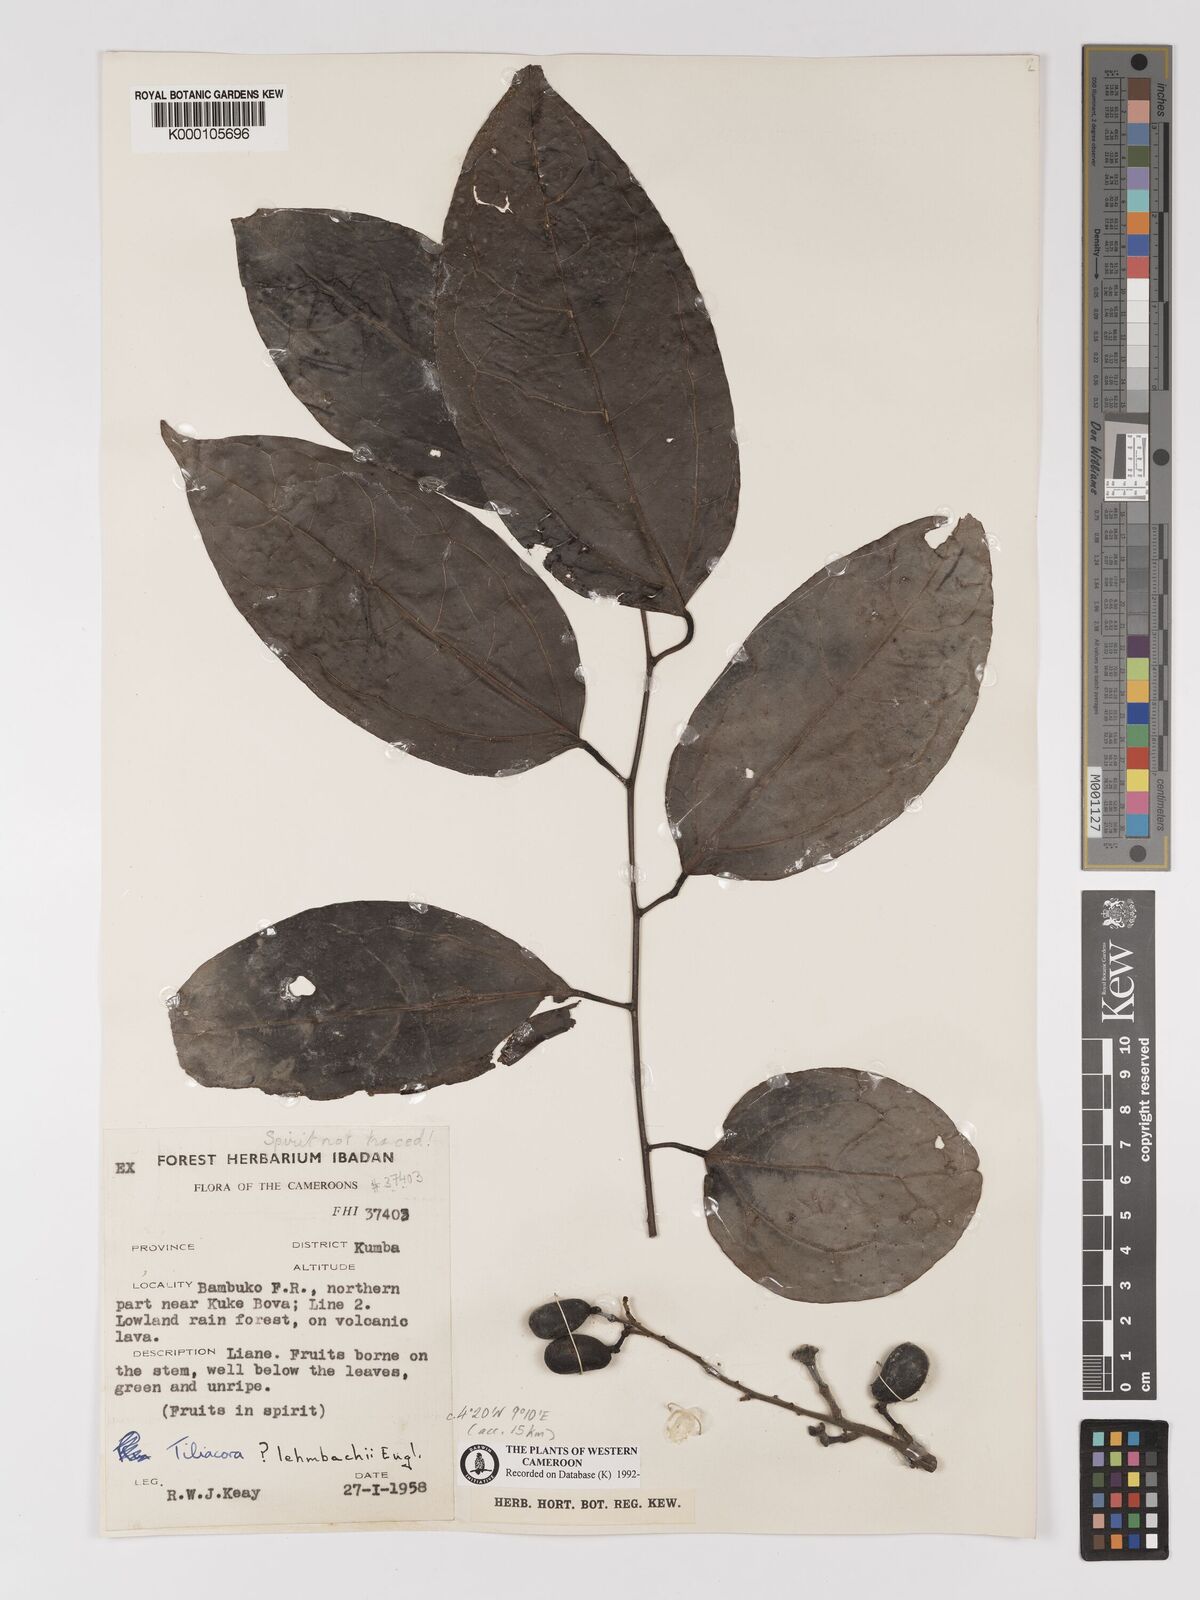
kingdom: Plantae
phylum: Tracheophyta
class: Magnoliopsida
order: Ranunculales
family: Menispermaceae
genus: Tiliacora
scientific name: Tiliacora lehmbachii
